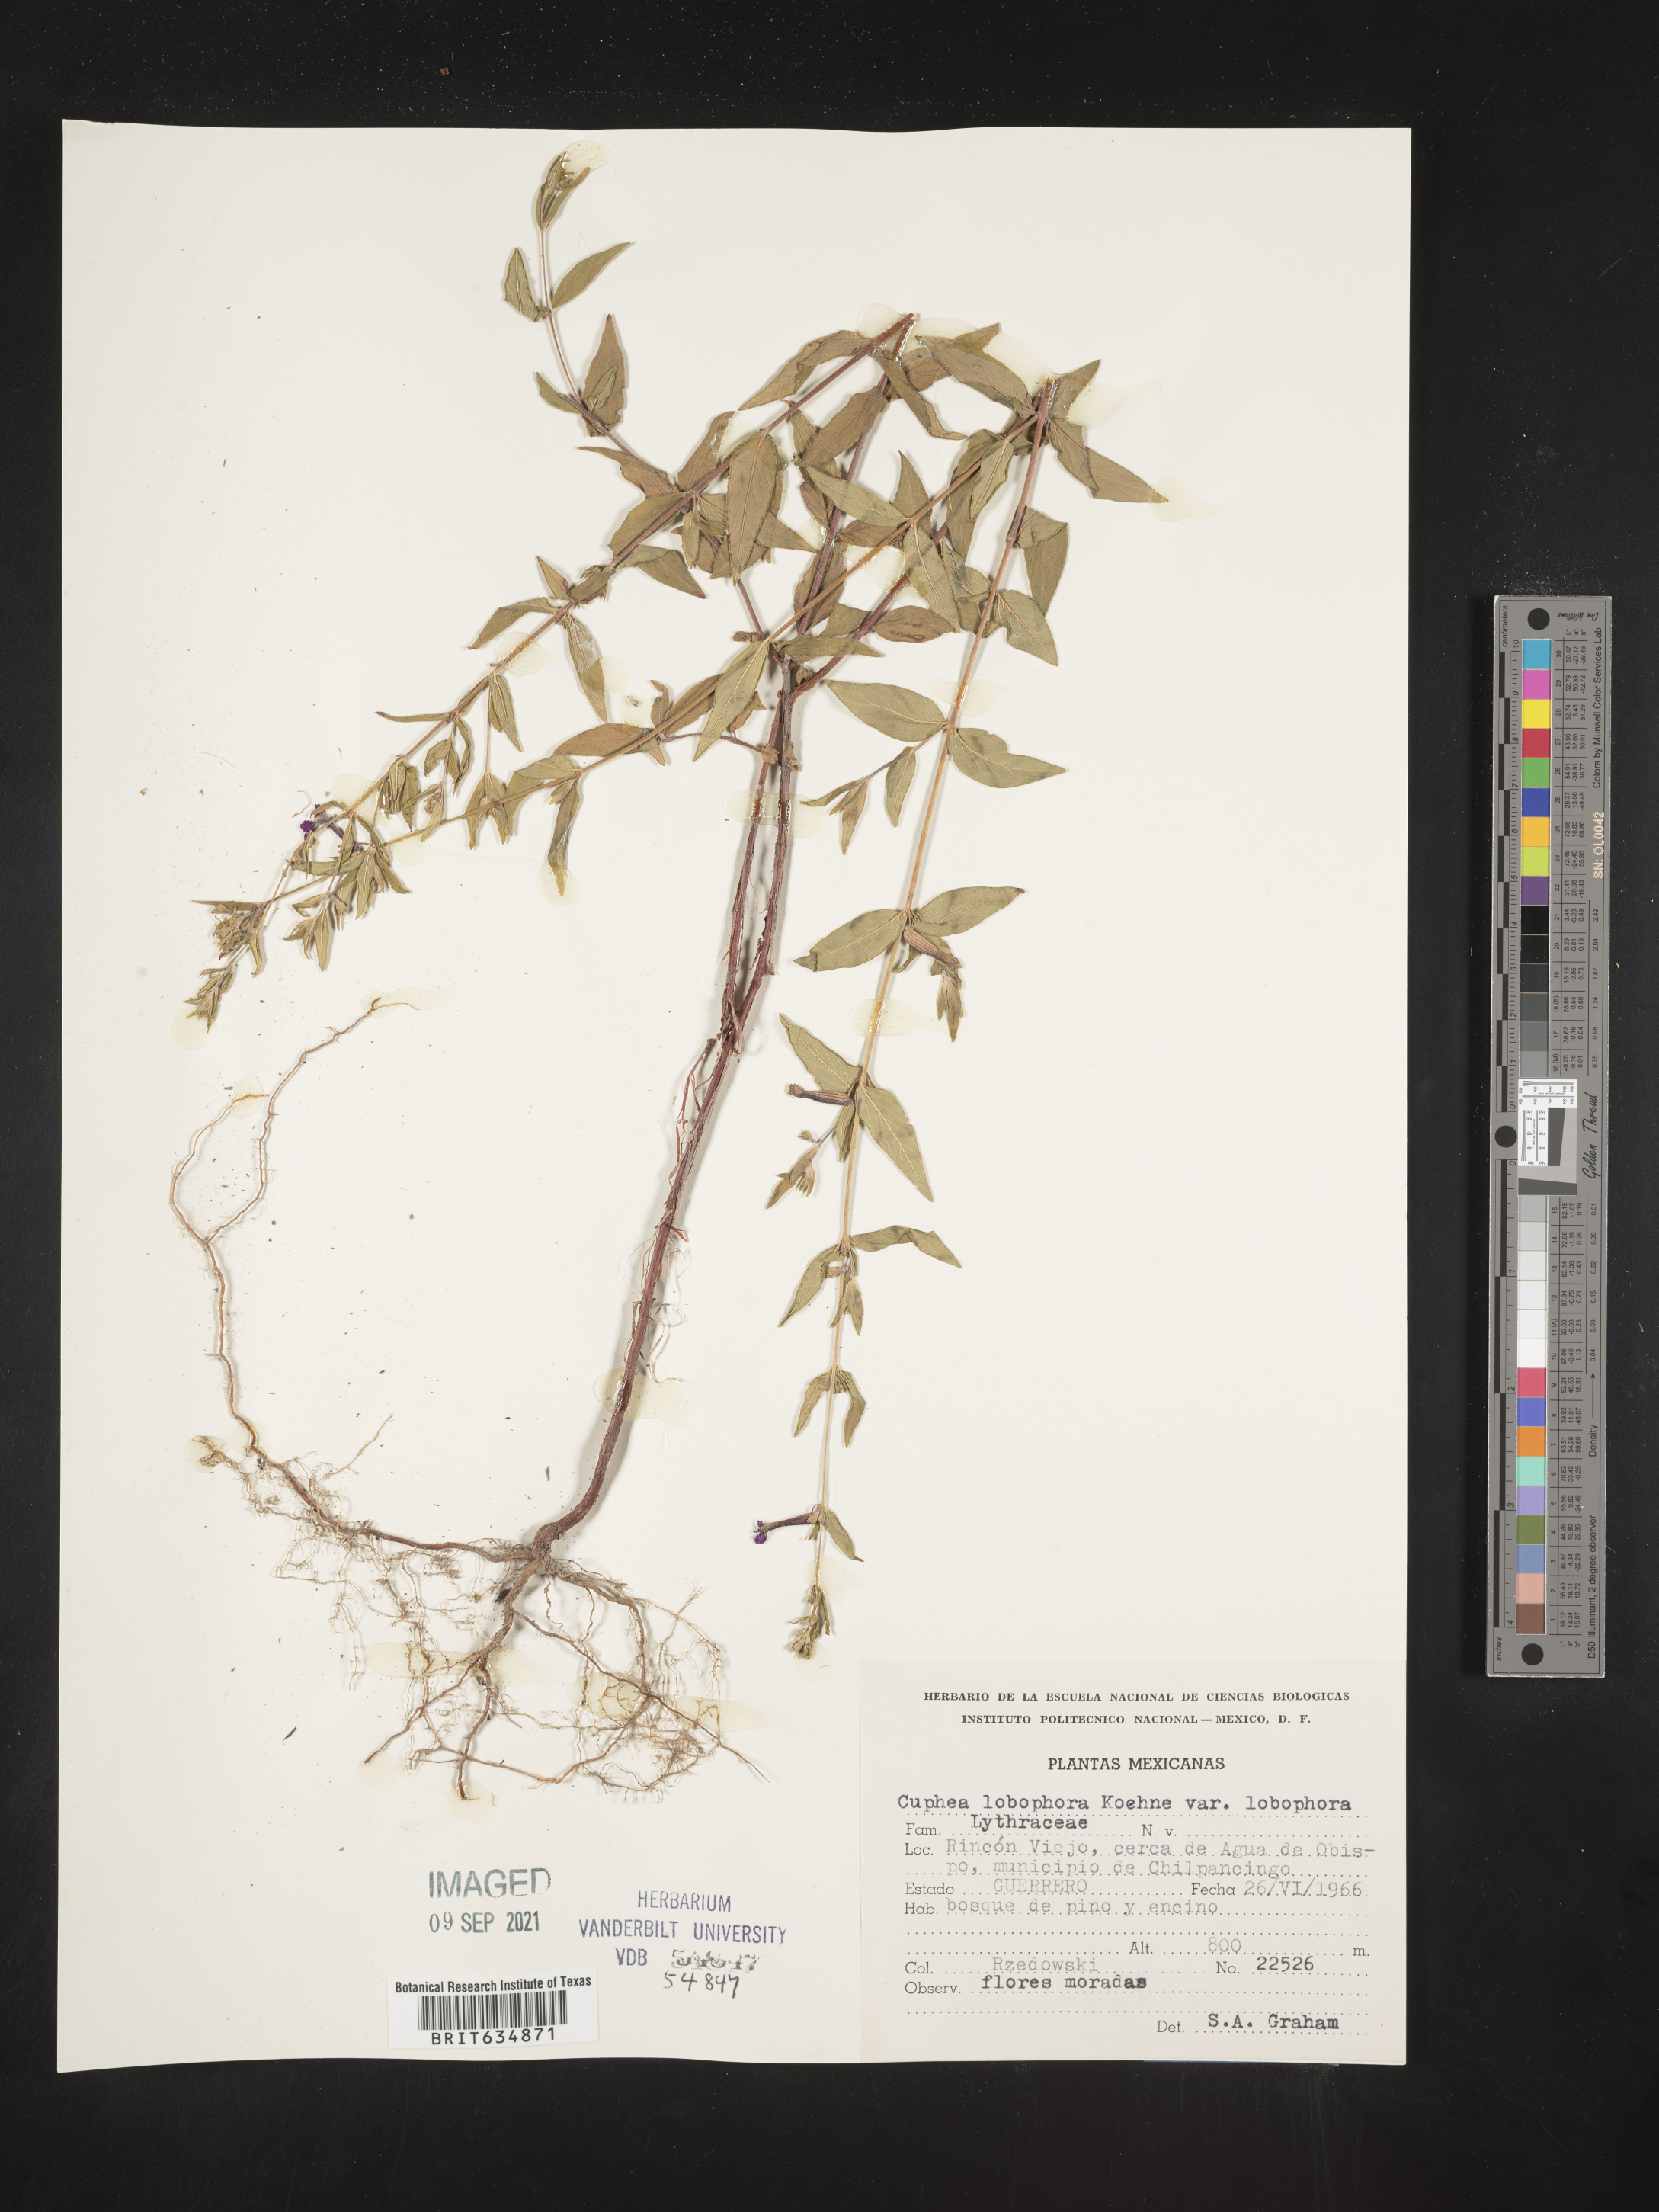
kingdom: Plantae
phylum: Tracheophyta
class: Magnoliopsida
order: Myrtales
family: Lythraceae
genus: Cuphea
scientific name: Cuphea
